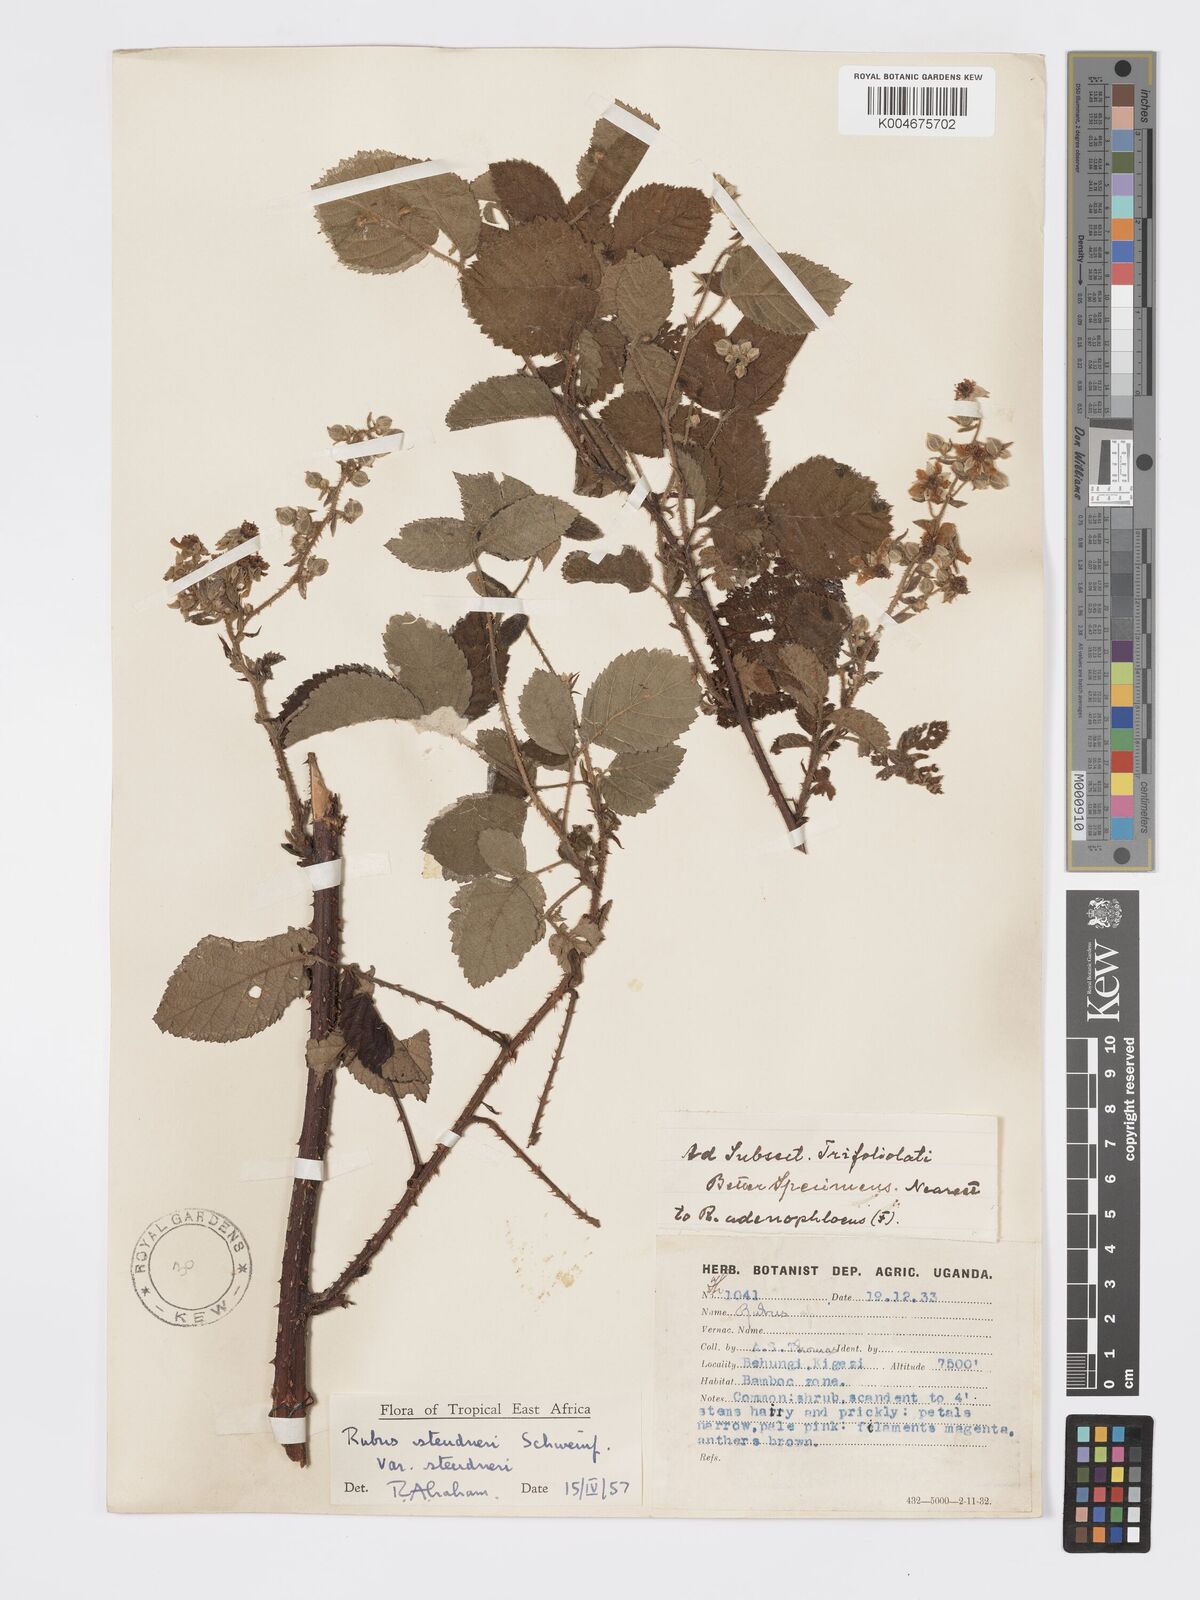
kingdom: Plantae
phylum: Tracheophyta
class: Magnoliopsida
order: Rosales
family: Rosaceae
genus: Rubus
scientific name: Rubus steudneri
